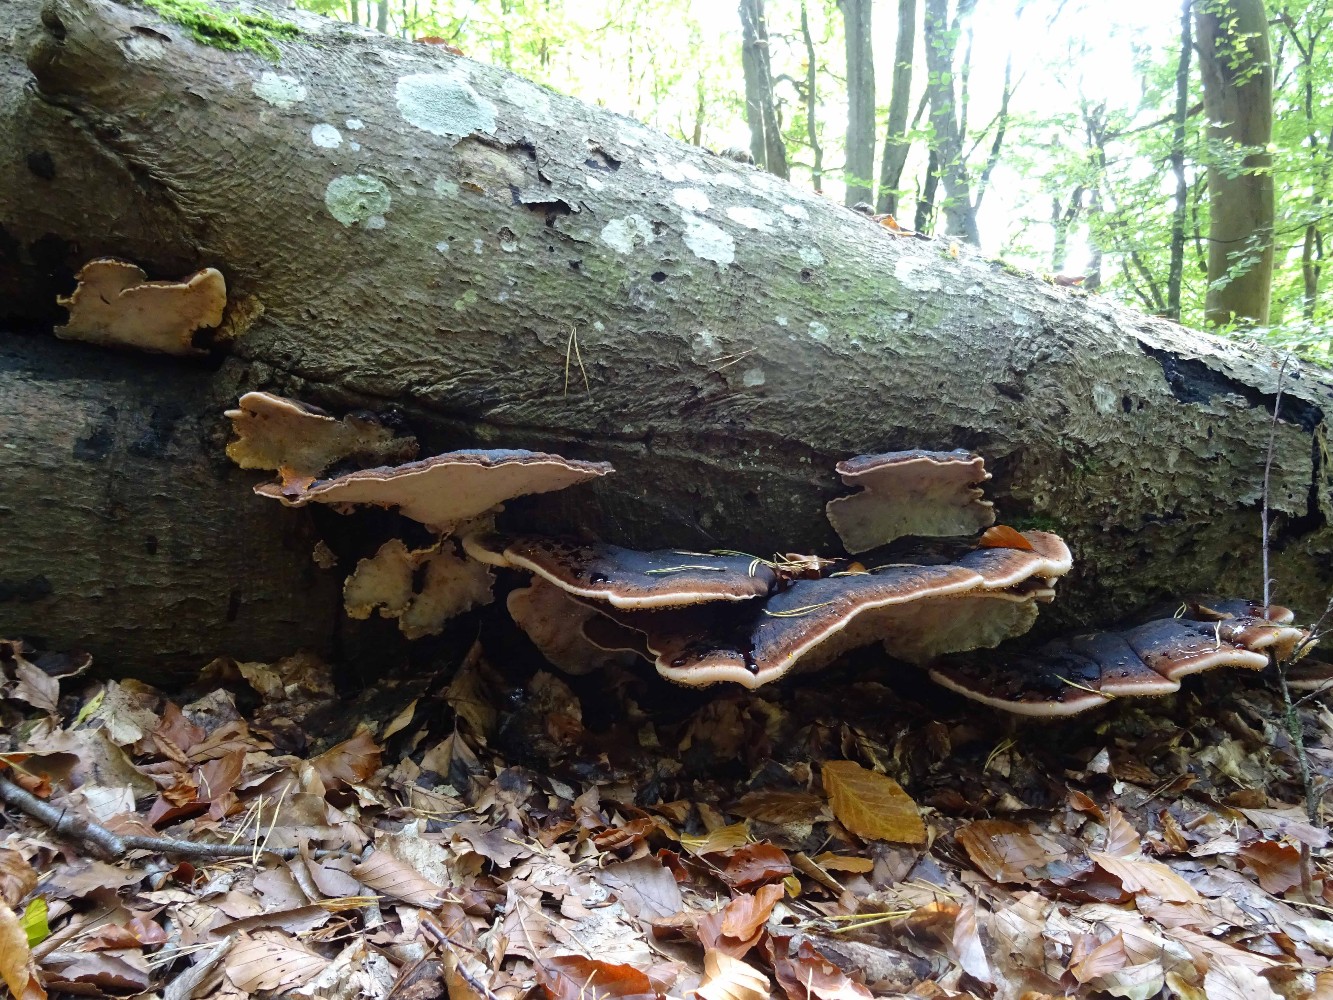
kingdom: Fungi
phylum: Basidiomycota
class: Agaricomycetes
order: Polyporales
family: Ischnodermataceae
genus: Ischnoderma
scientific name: Ischnoderma resinosum
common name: løv-tjæreporesvamp
